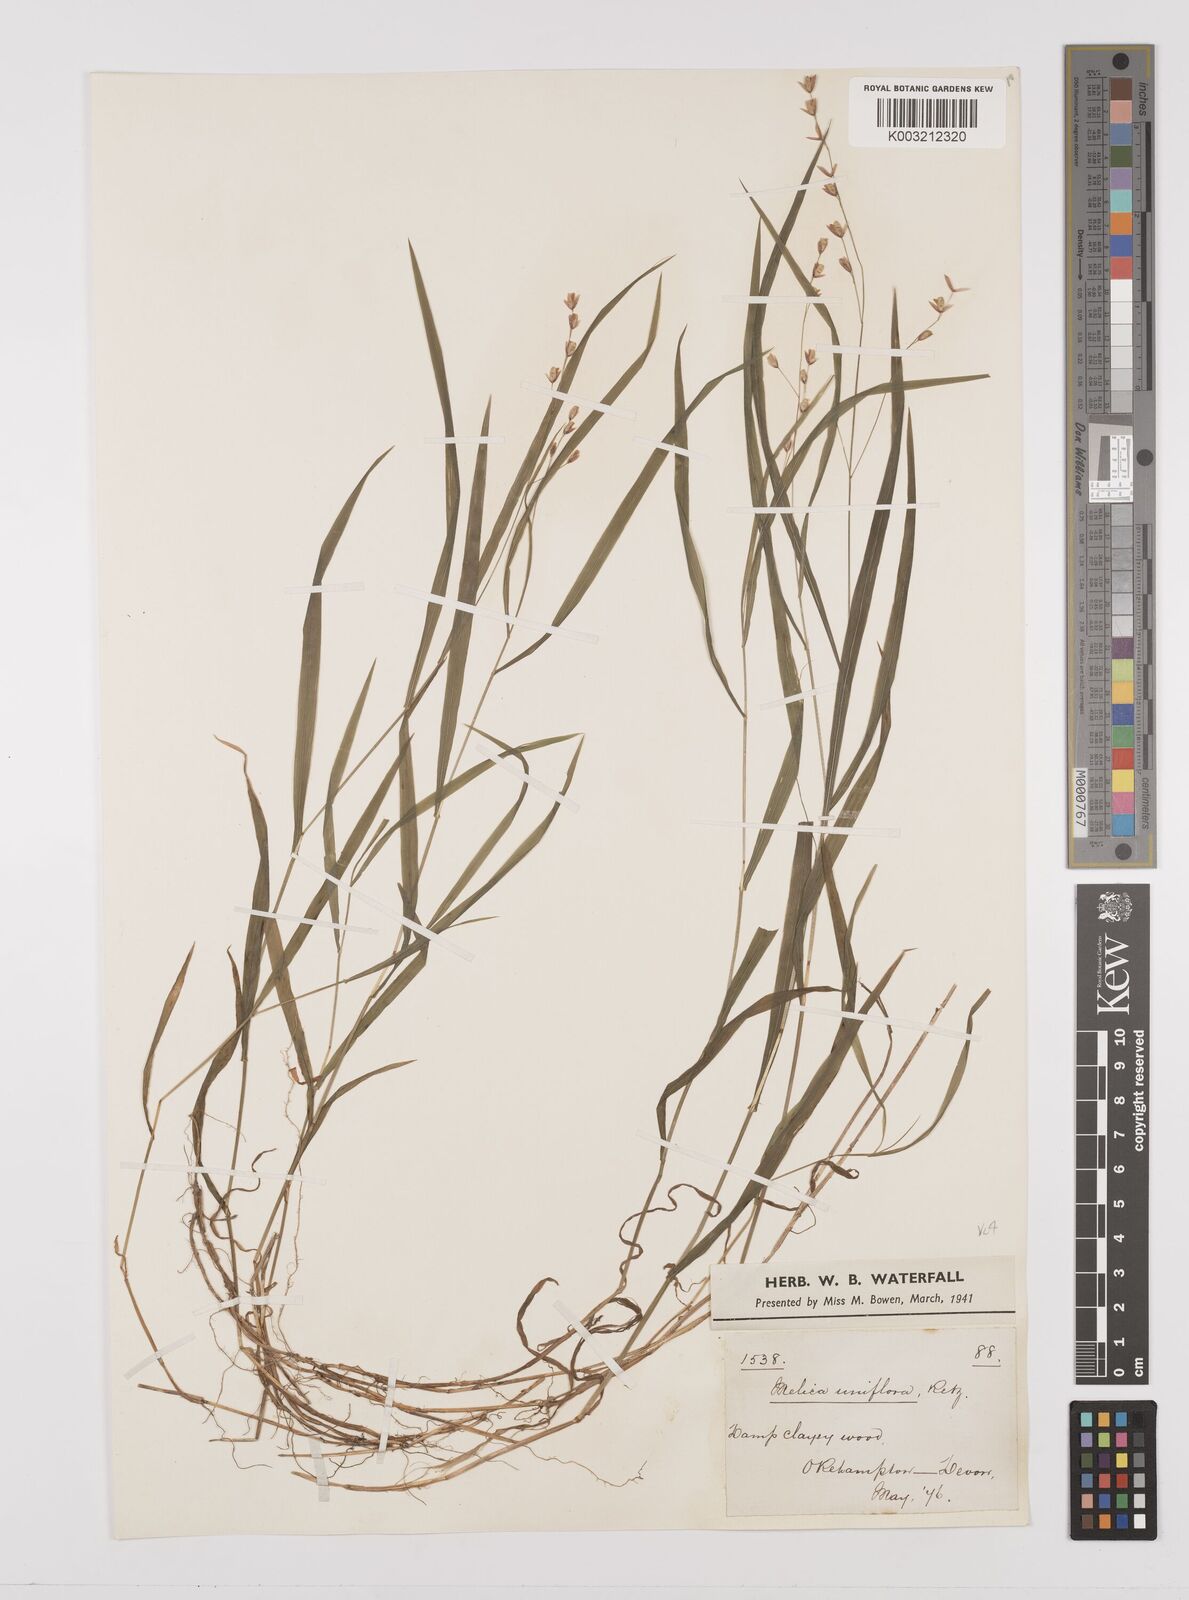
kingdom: Plantae
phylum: Tracheophyta
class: Liliopsida
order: Poales
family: Poaceae
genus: Melica
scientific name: Melica uniflora
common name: Wood melick
